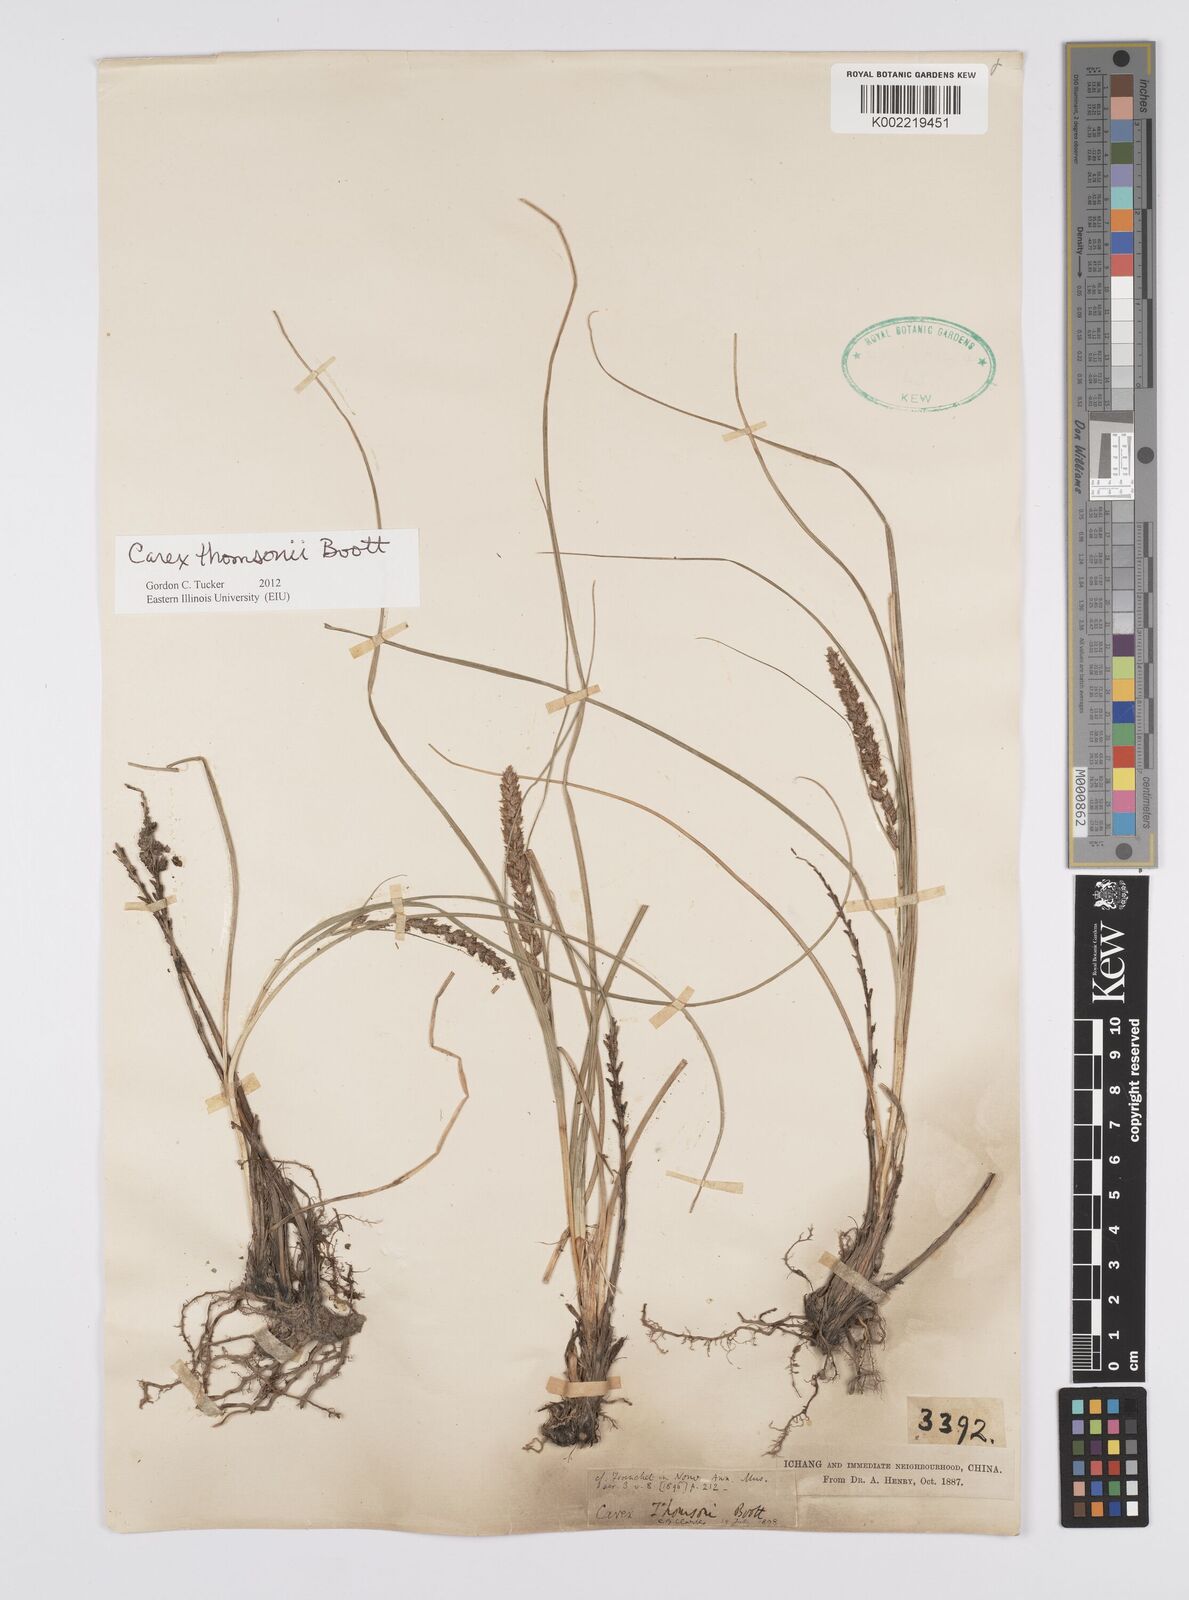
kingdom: Plantae
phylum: Tracheophyta
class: Liliopsida
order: Poales
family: Cyperaceae
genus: Carex
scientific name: Carex thomsonii
